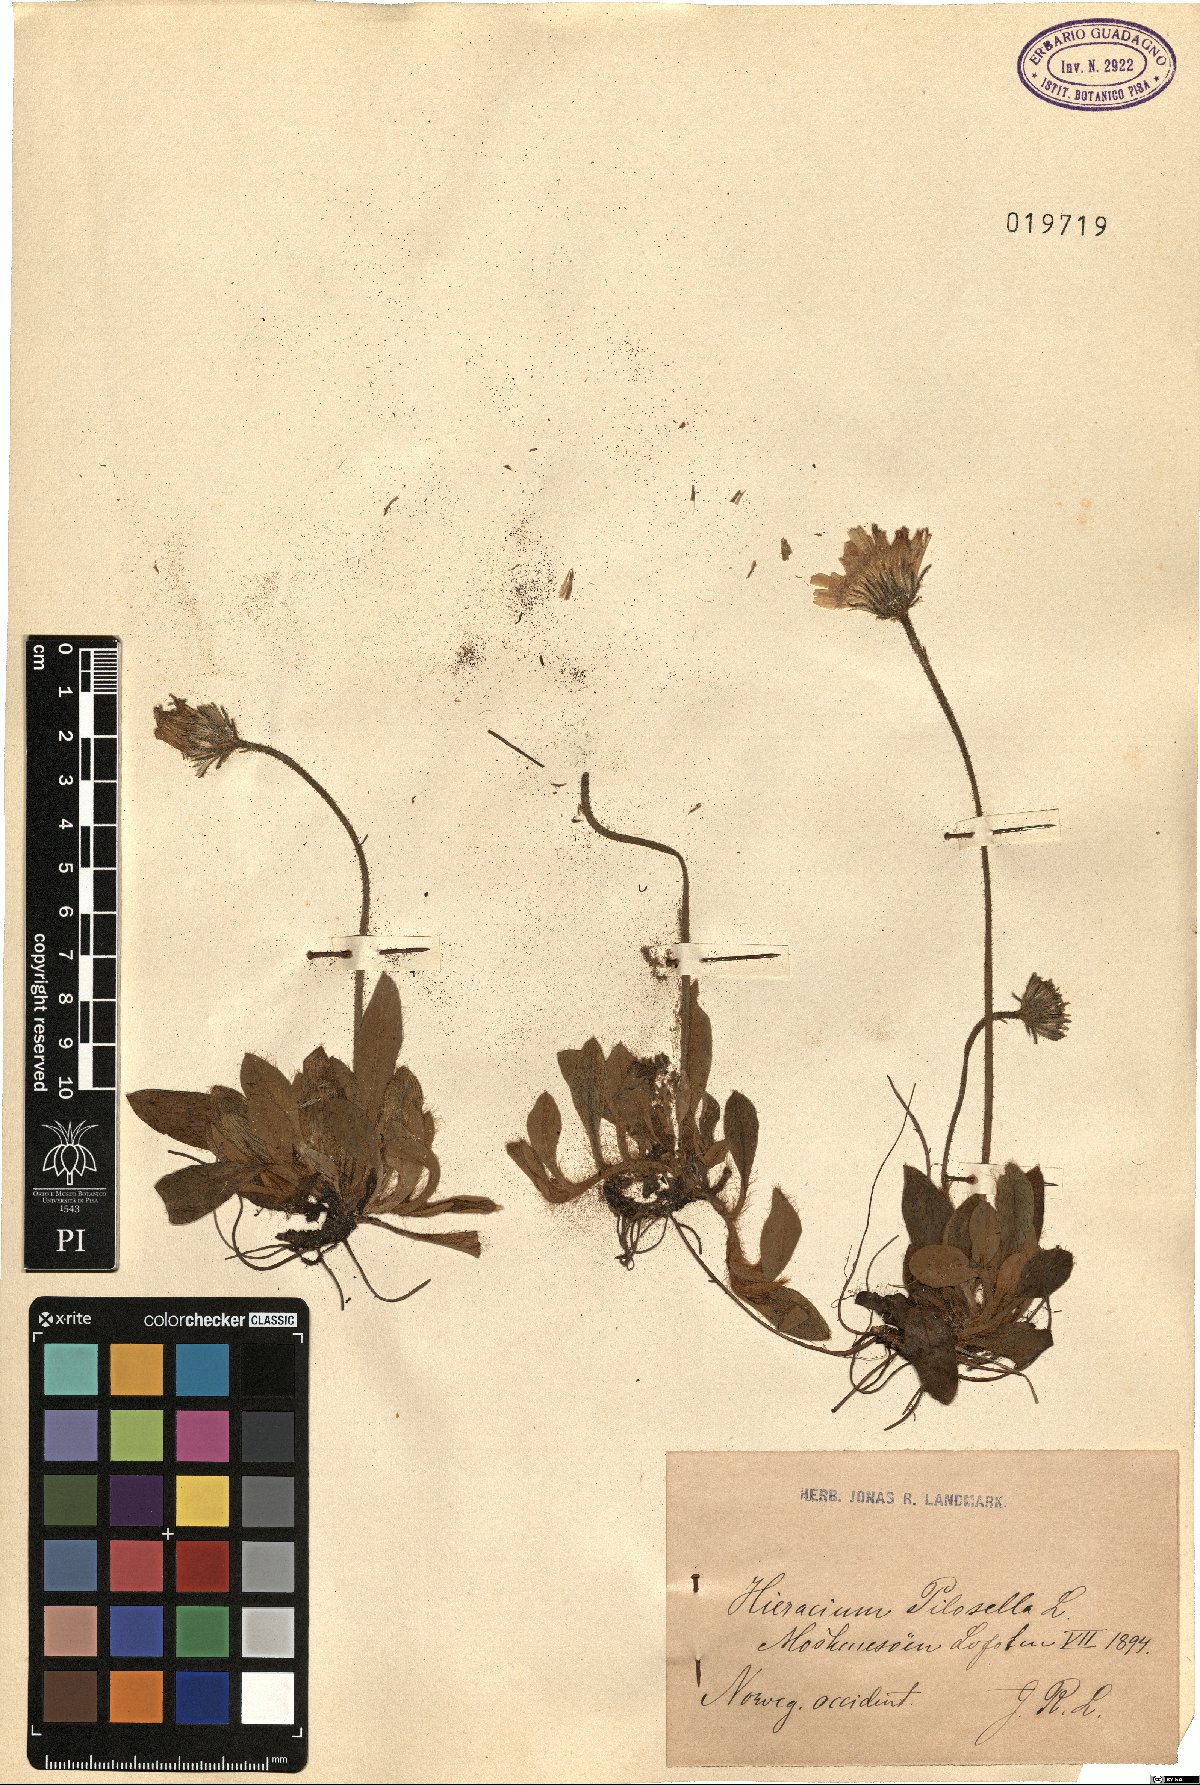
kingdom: Plantae
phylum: Tracheophyta
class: Magnoliopsida
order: Asterales
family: Asteraceae
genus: Pilosella
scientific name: Pilosella officinarum
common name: Mouse-ear hawkweed
